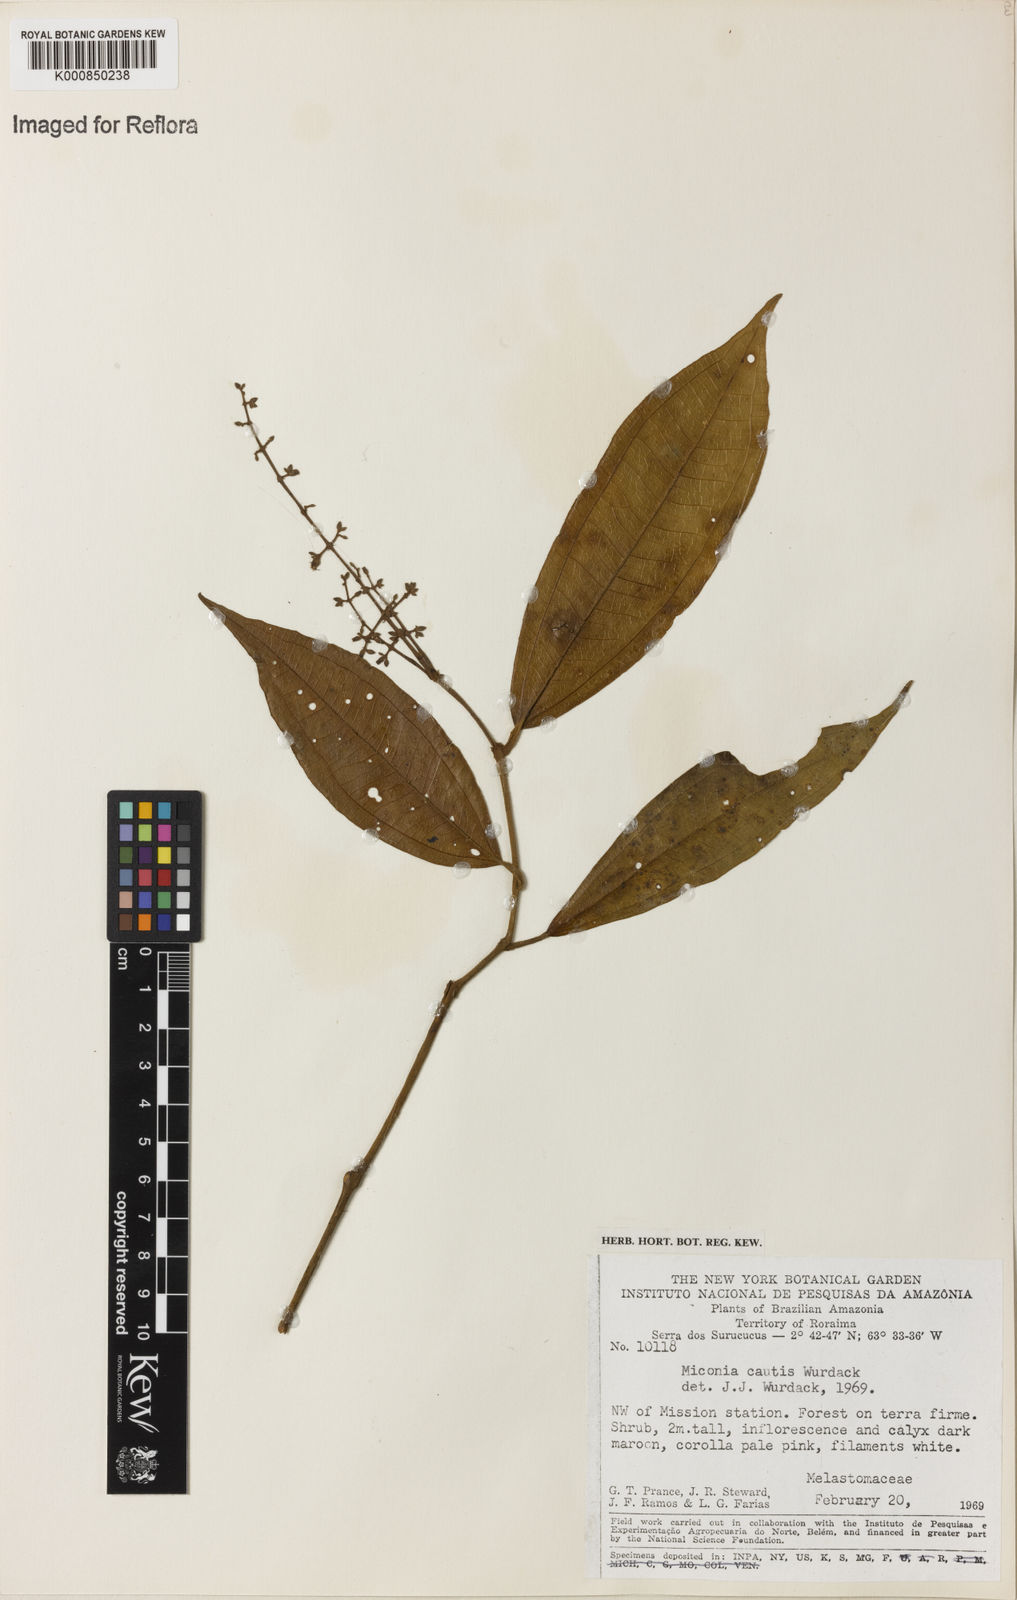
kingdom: Plantae
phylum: Tracheophyta
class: Magnoliopsida
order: Myrtales
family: Melastomataceae
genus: Miconia
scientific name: Miconia cautis
